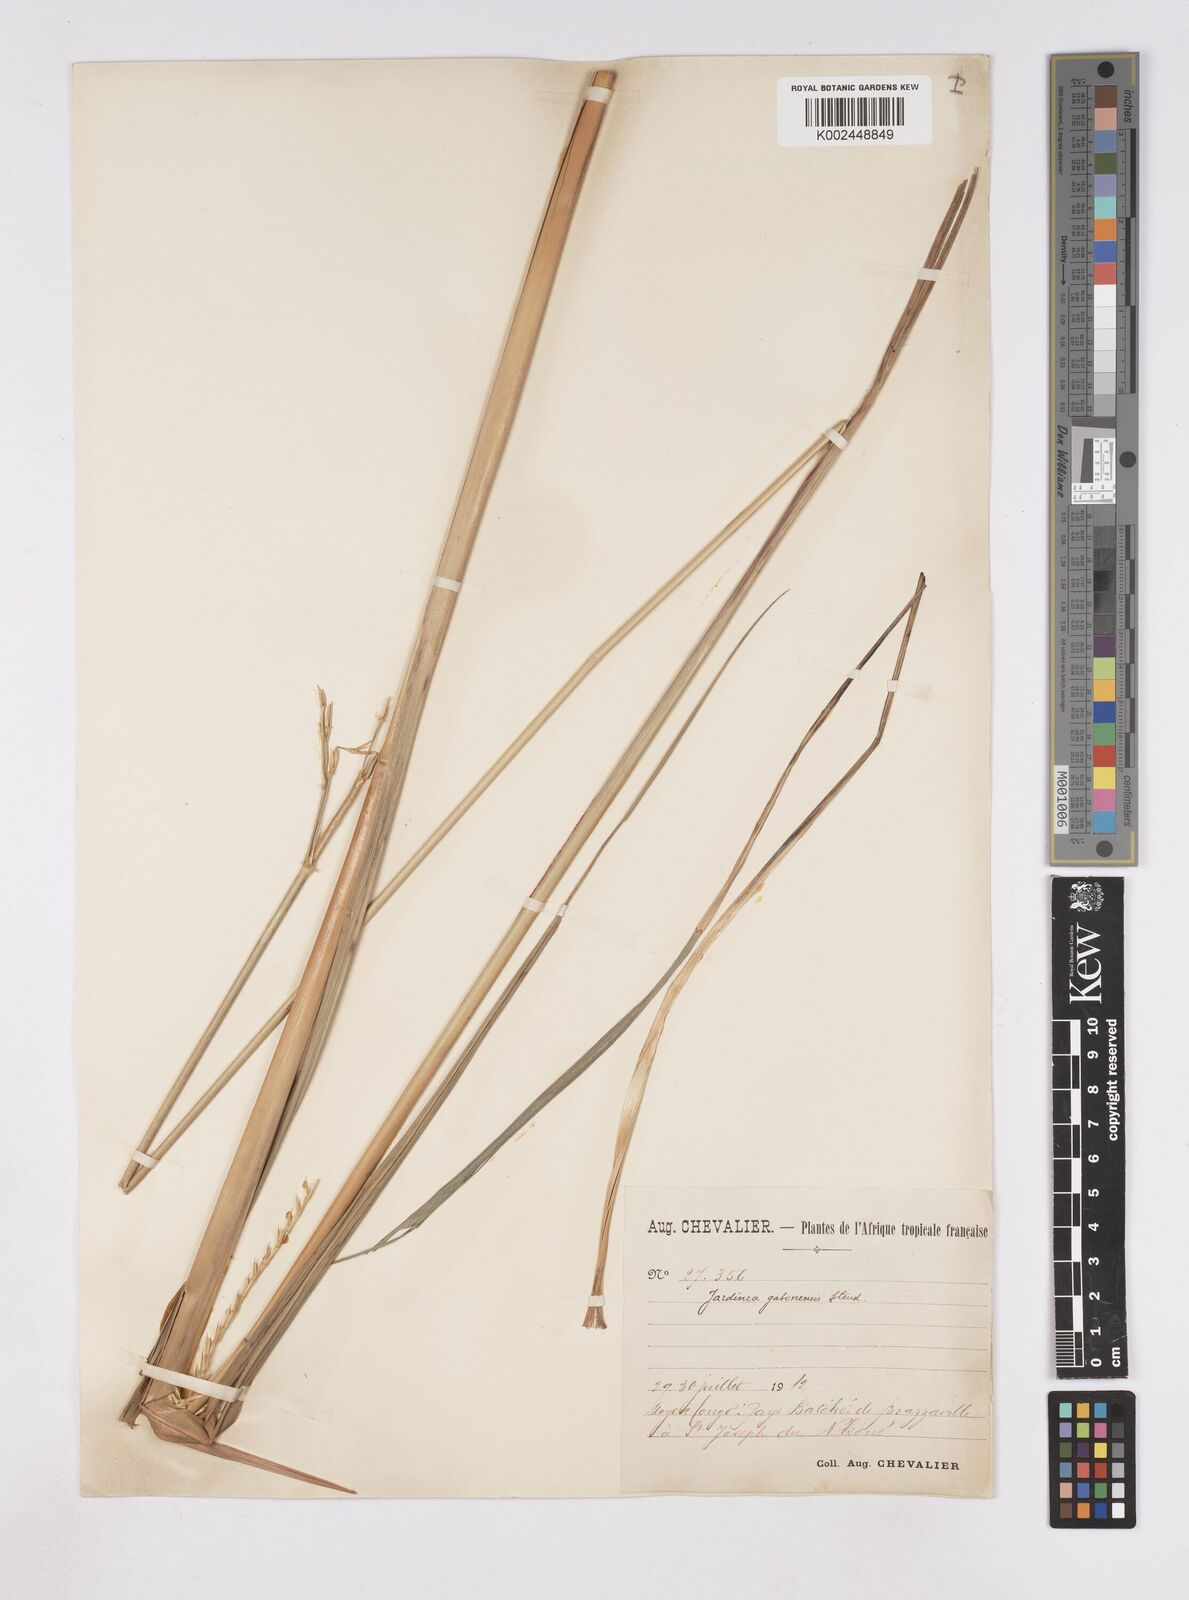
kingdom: Plantae
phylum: Tracheophyta
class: Liliopsida
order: Poales
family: Poaceae
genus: Phacelurus
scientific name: Phacelurus gabonensis
